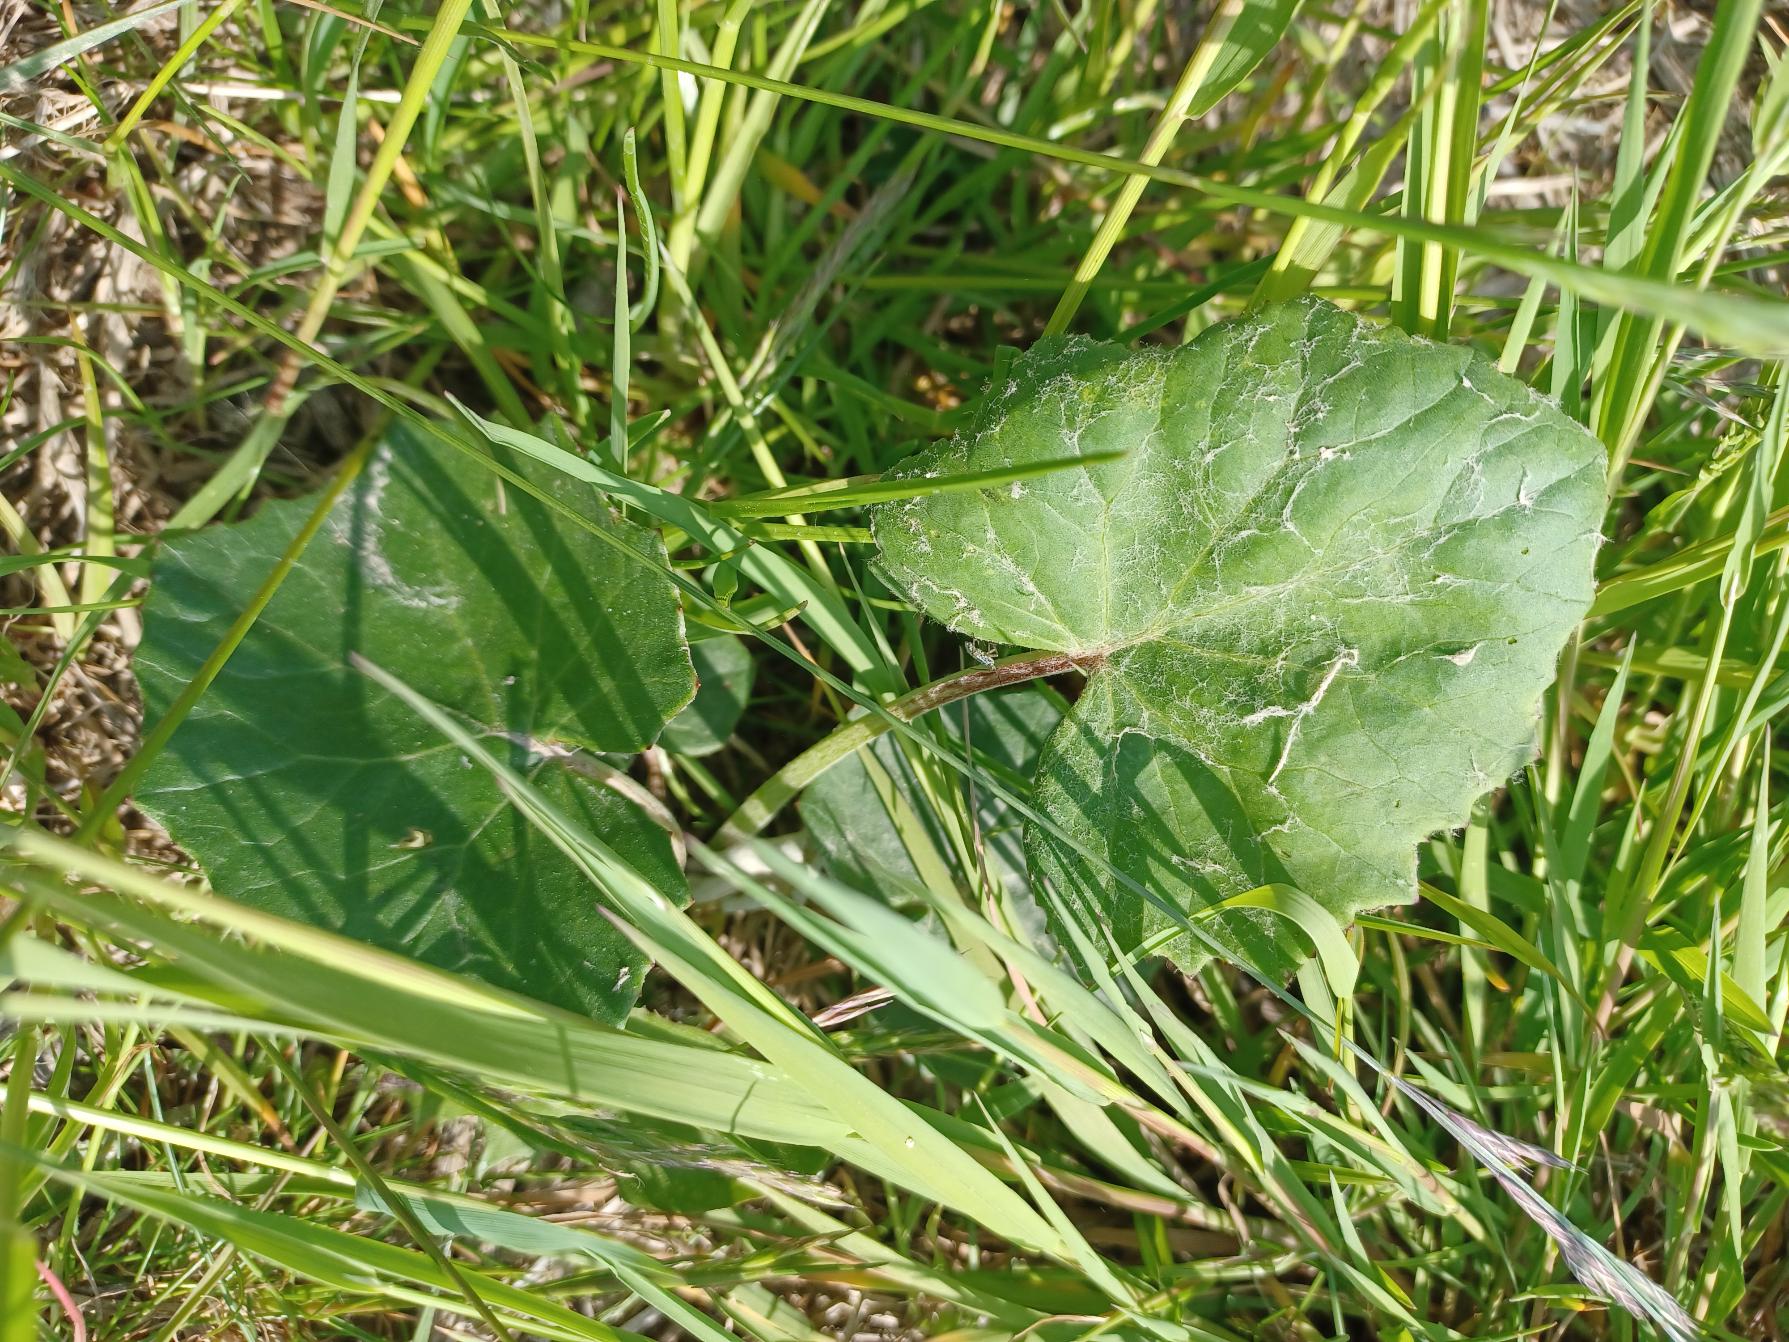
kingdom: Plantae
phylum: Tracheophyta
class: Magnoliopsida
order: Asterales
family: Asteraceae
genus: Tussilago
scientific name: Tussilago farfara
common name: Følfod
